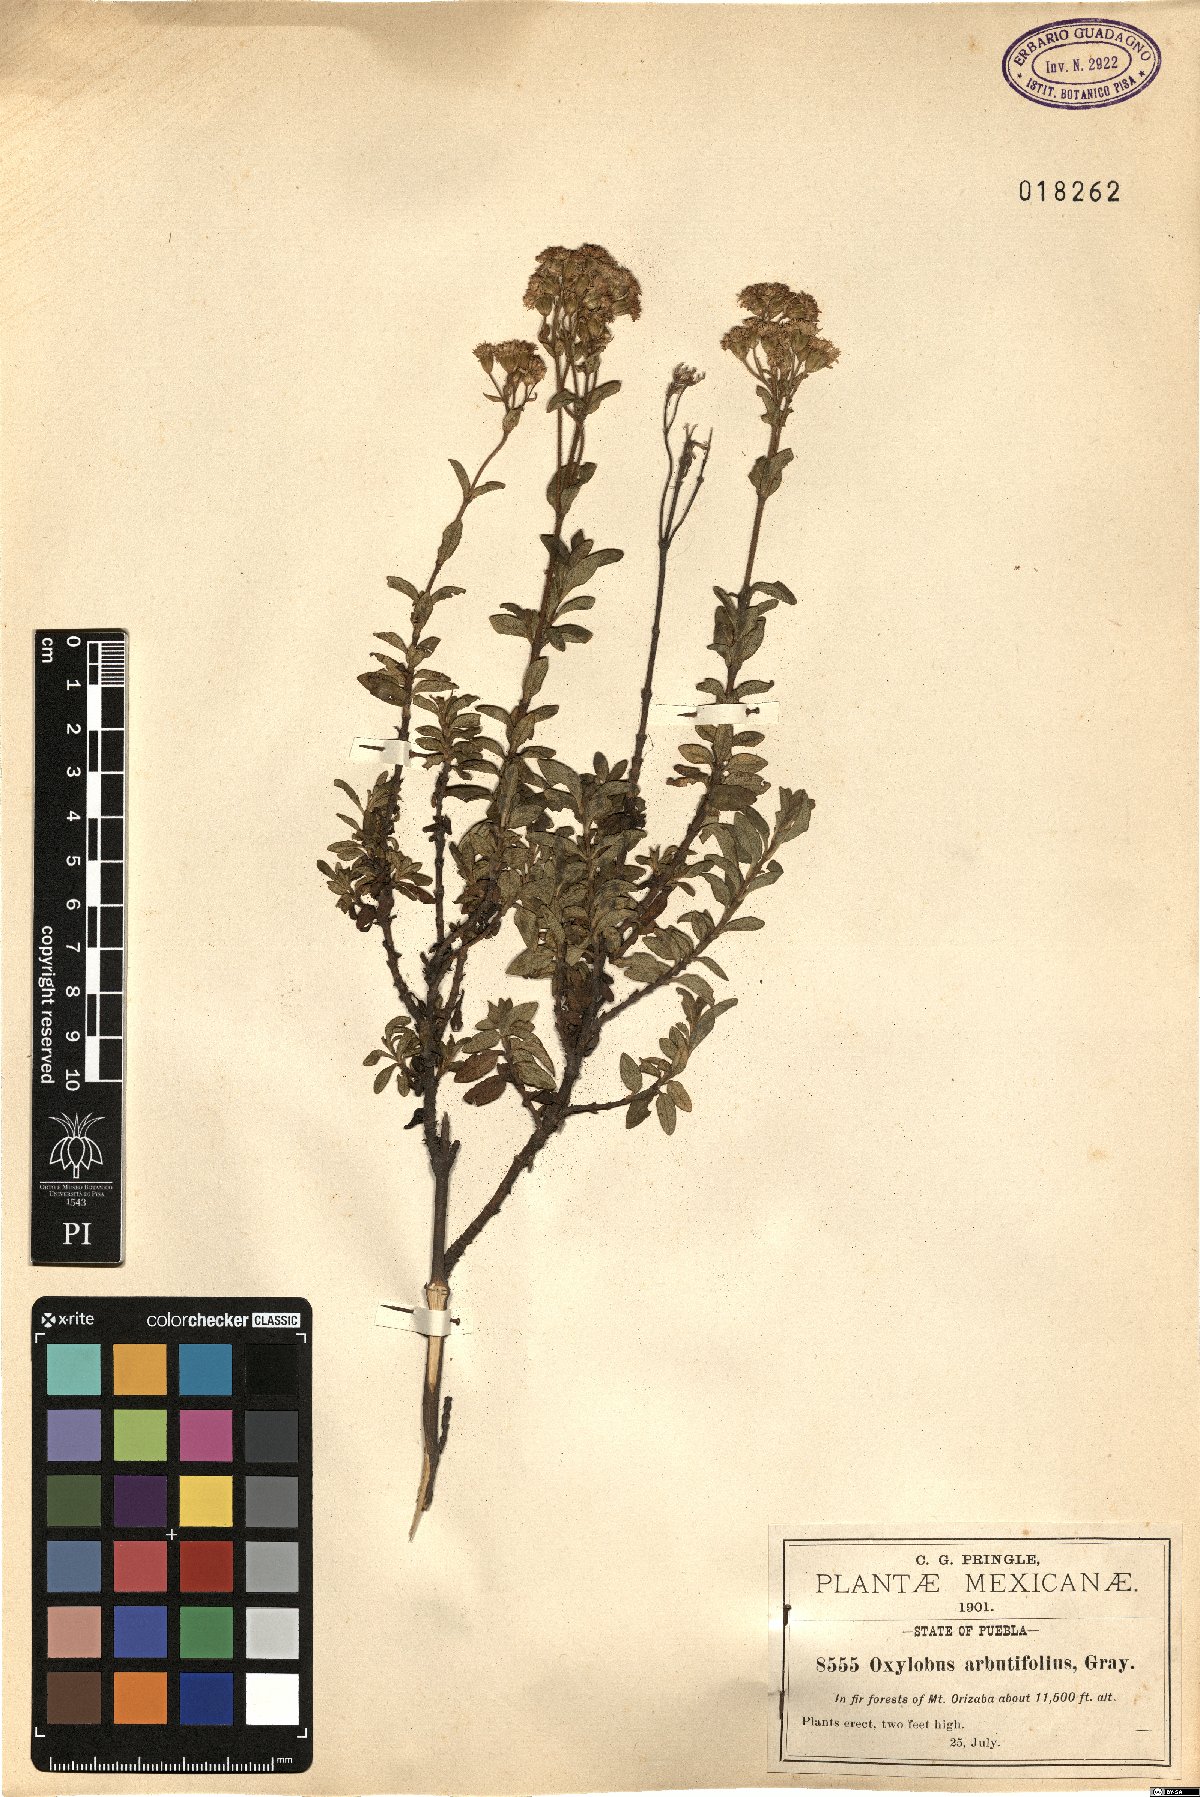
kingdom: Plantae
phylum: Tracheophyta
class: Magnoliopsida
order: Asterales
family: Asteraceae
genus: Oxylobus
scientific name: Oxylobus arbutifolius
